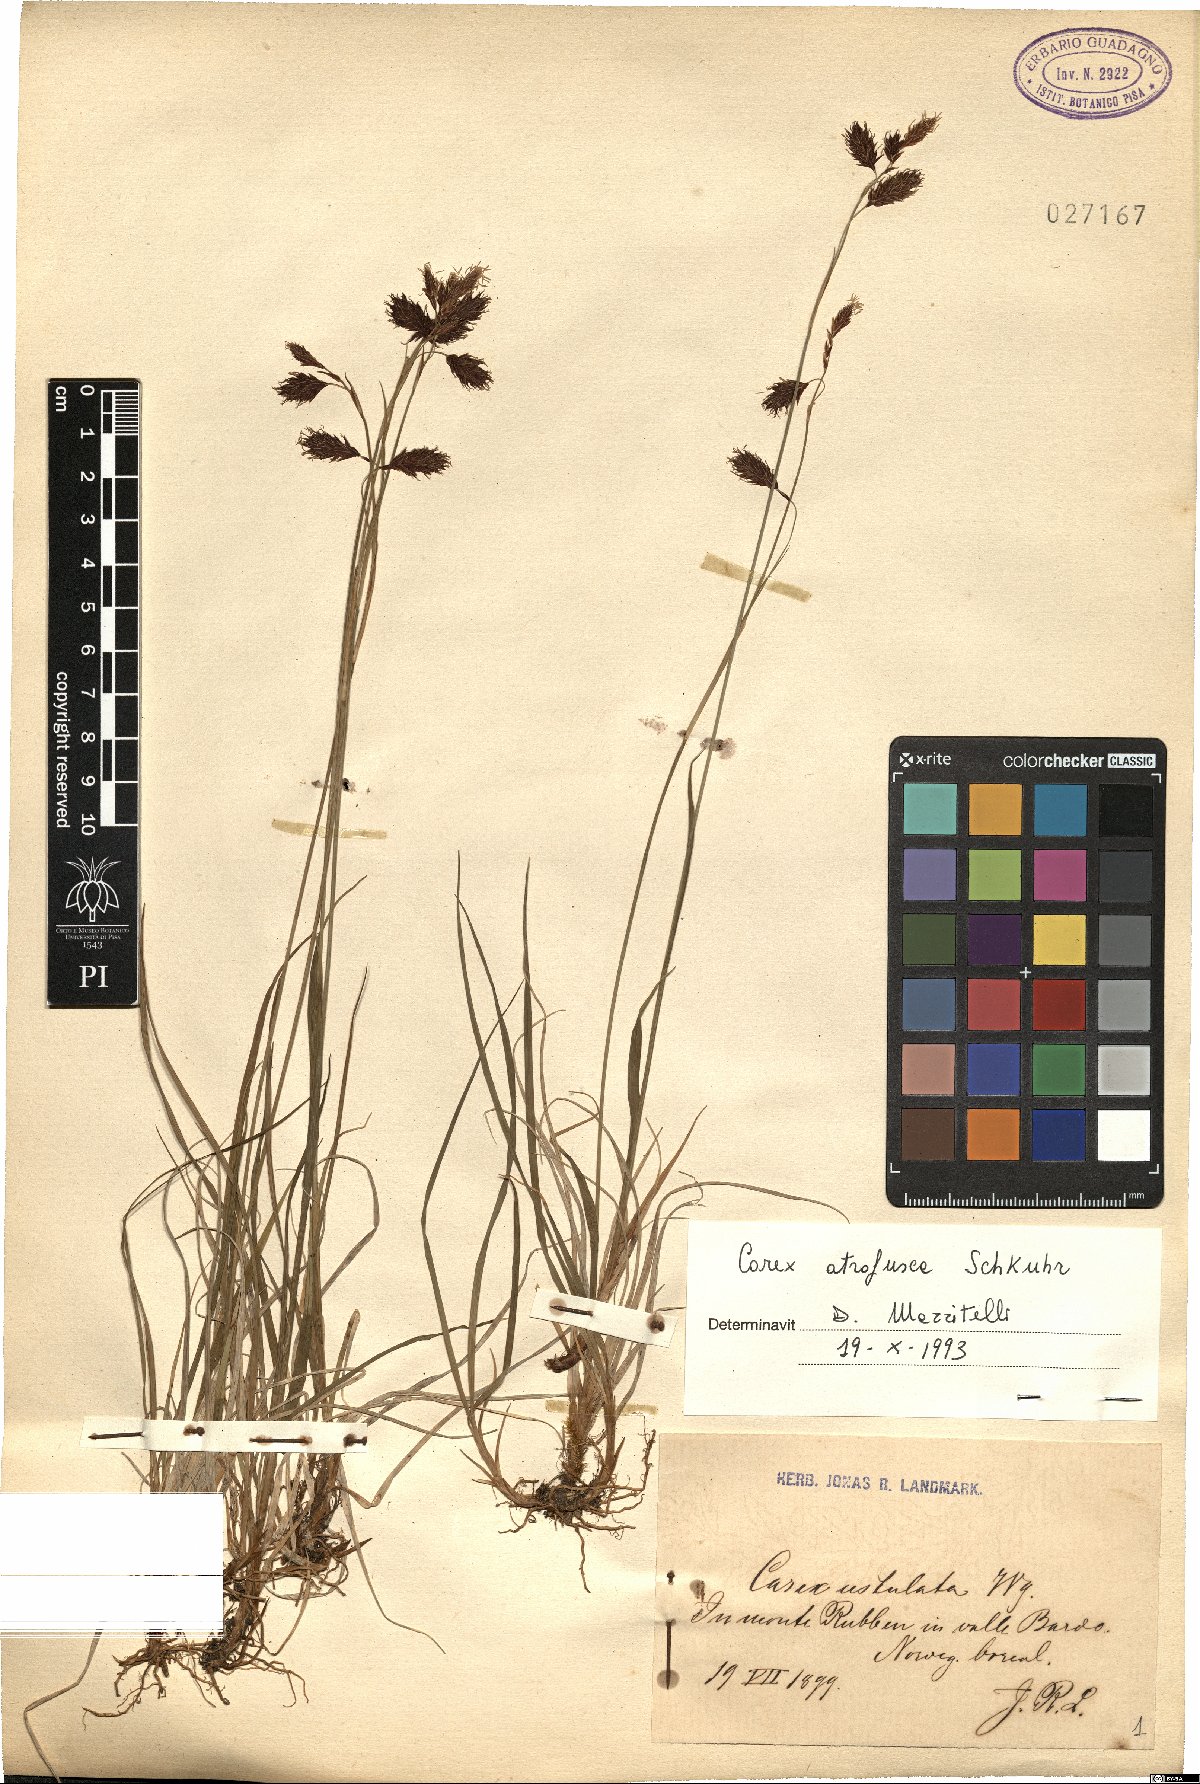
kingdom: Plantae
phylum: Tracheophyta
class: Liliopsida
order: Poales
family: Cyperaceae
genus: Carex
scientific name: Carex atrofusca
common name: Scorched alpine-sedge
